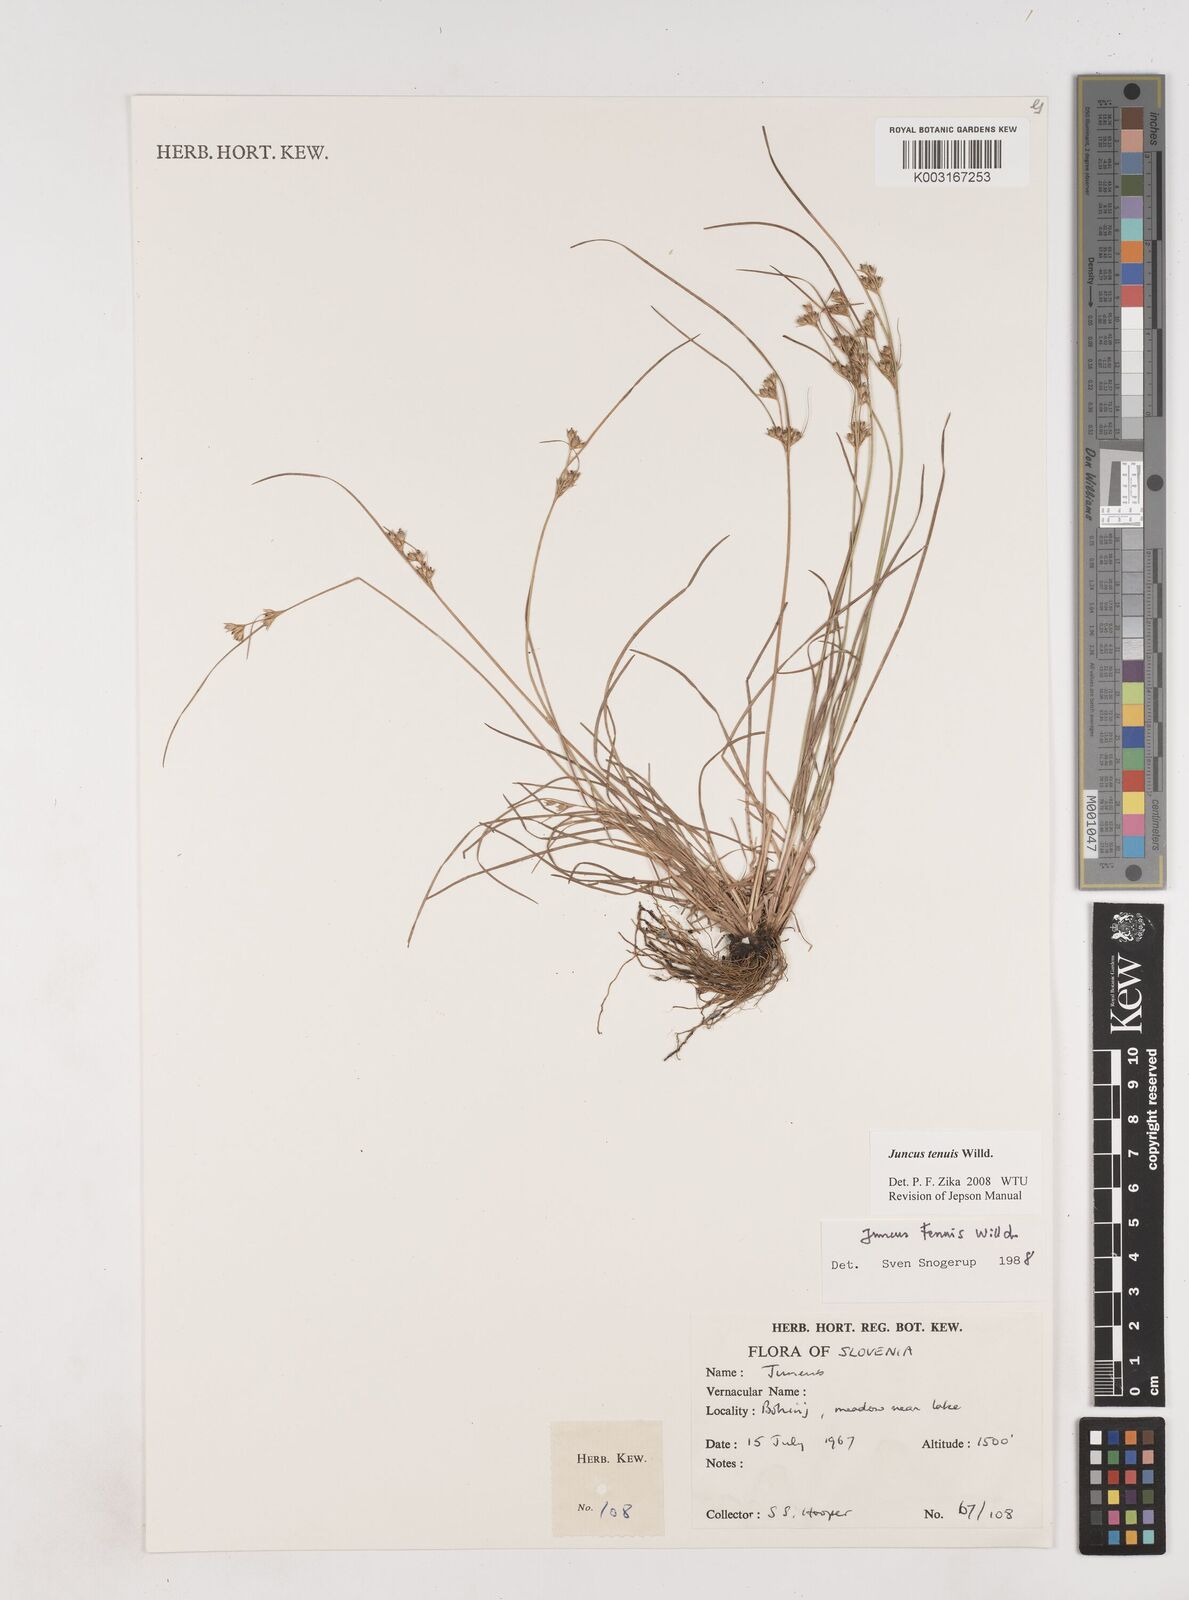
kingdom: Plantae
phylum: Tracheophyta
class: Liliopsida
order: Poales
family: Juncaceae
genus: Juncus
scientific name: Juncus tenuis
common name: Slender rush
